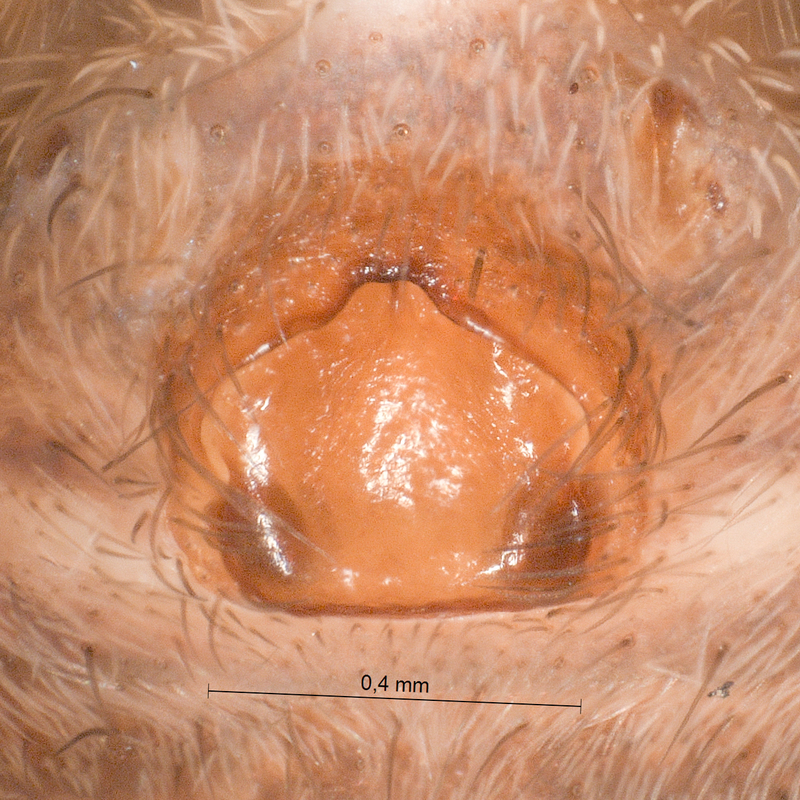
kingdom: Animalia
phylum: Arthropoda
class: Arachnida
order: Araneae
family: Lycosidae
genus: Alopecosa
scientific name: Alopecosa cursor
